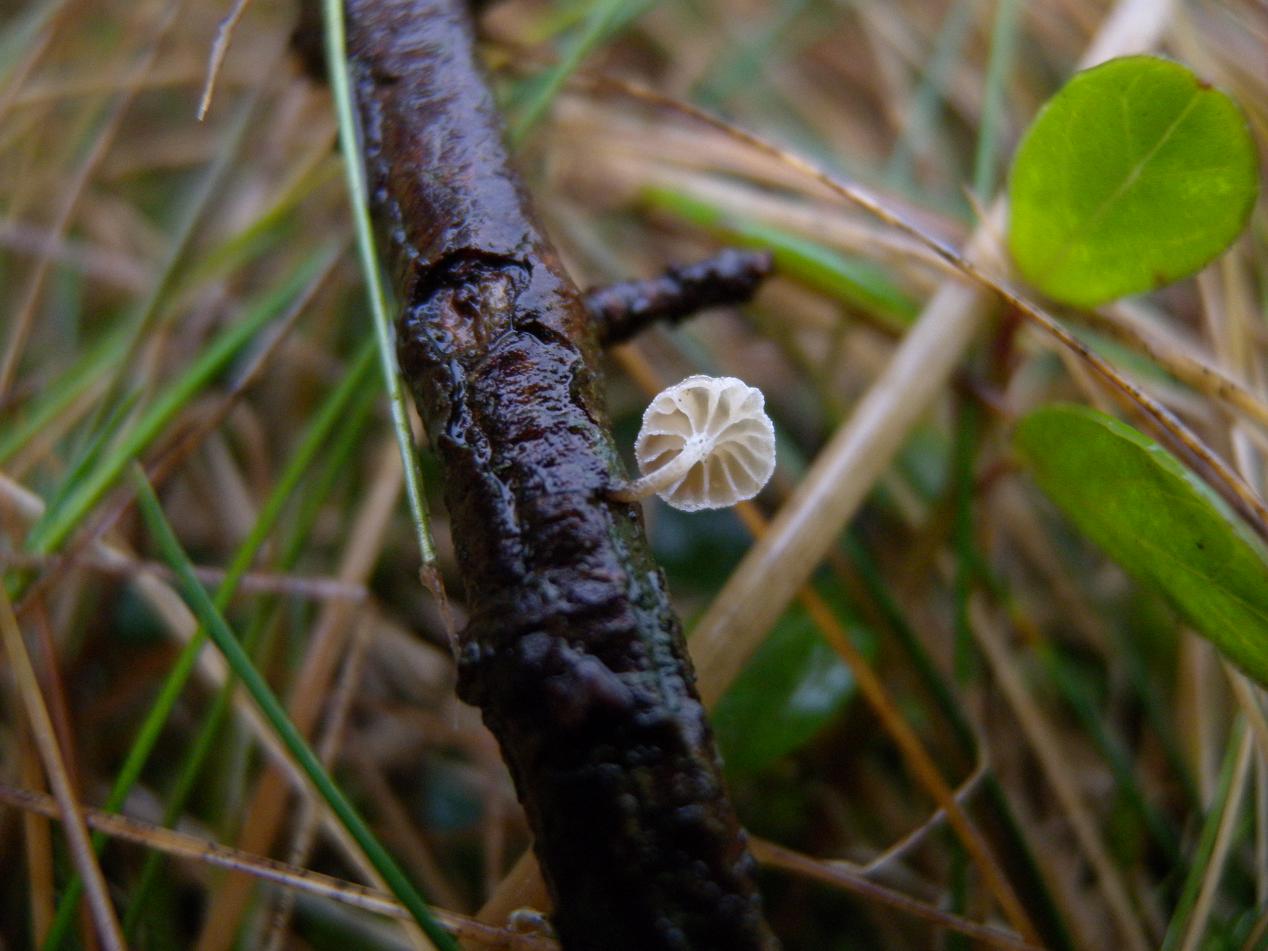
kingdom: Fungi
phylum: Basidiomycota
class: Agaricomycetes
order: Agaricales
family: Mycenaceae
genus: Mycena
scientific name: Mycena juniperina
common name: ene-Huesvamp
